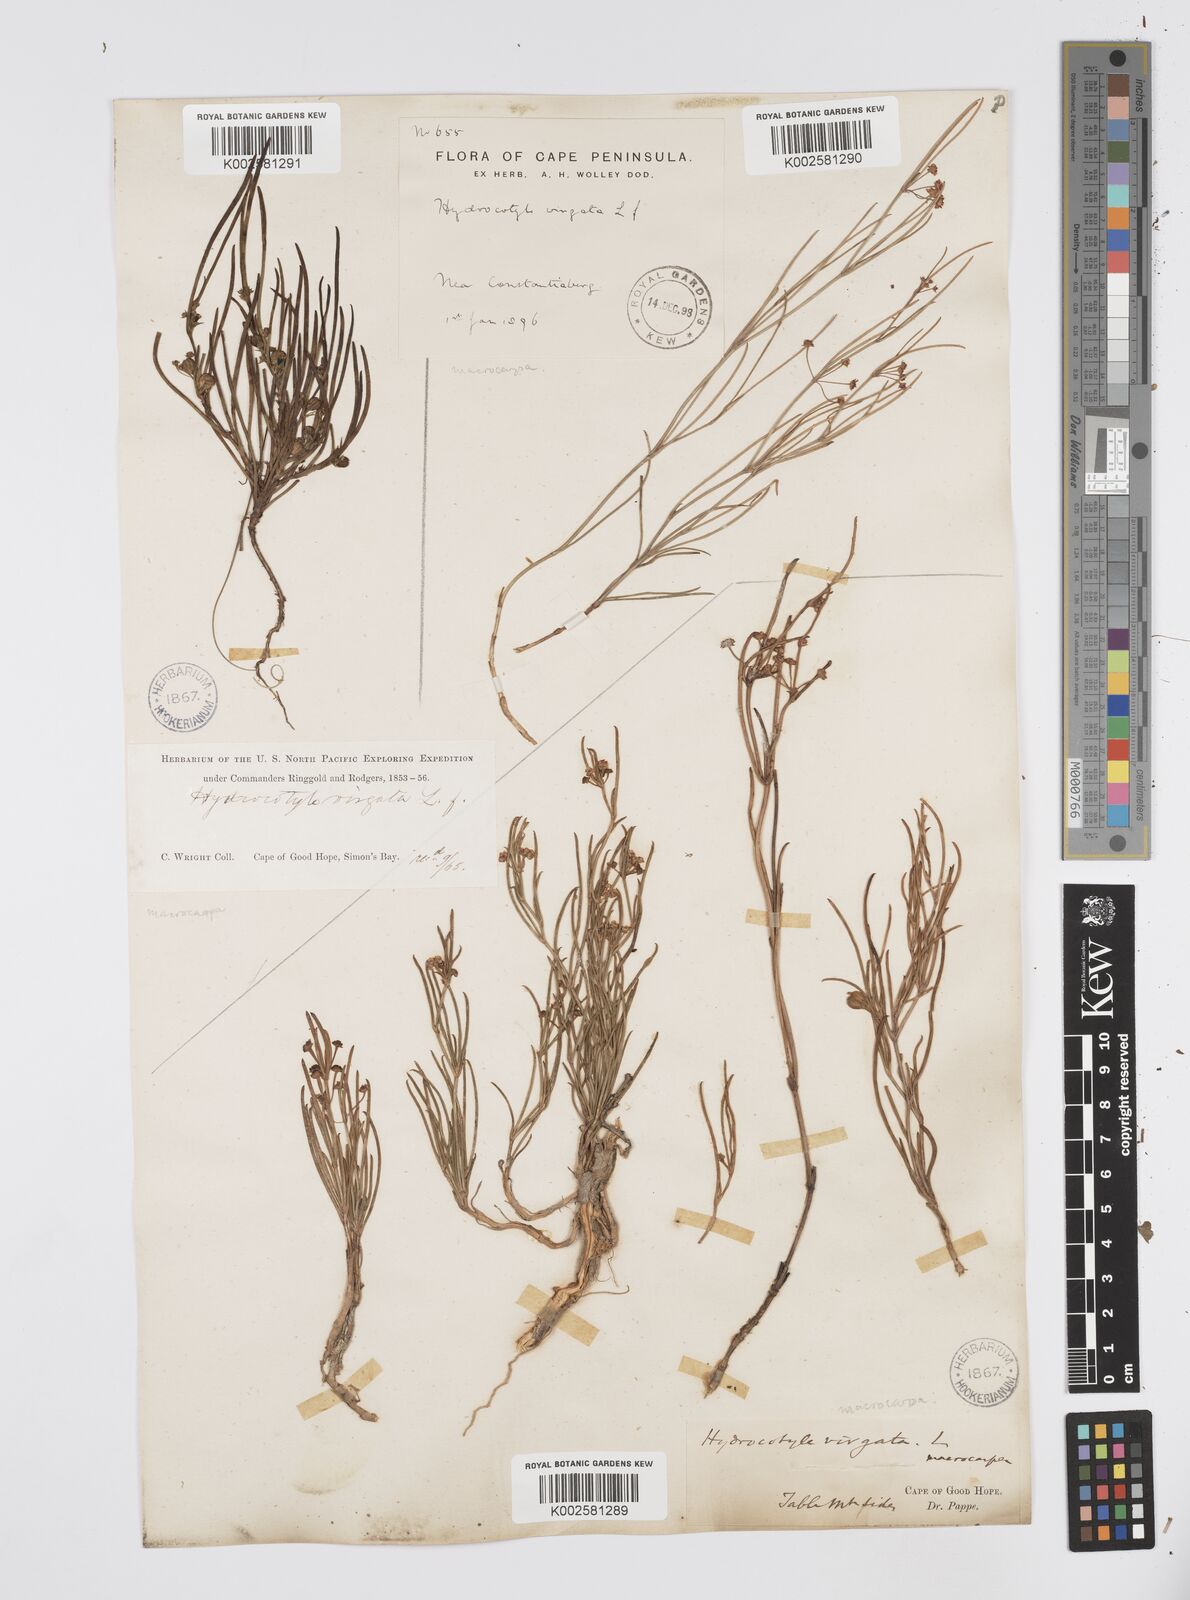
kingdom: Plantae
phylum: Tracheophyta
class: Magnoliopsida
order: Apiales
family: Apiaceae
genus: Centella
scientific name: Centella macrocarpa
